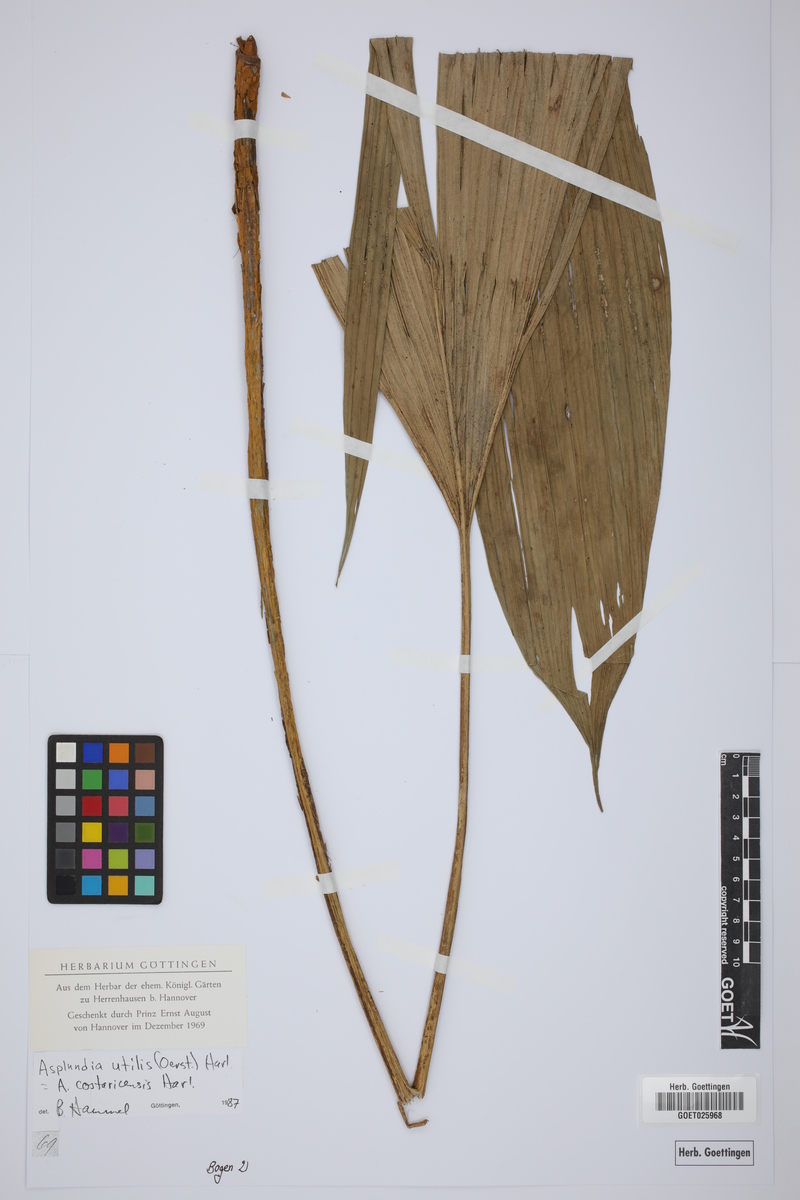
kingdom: Plantae
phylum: Tracheophyta
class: Liliopsida
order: Pandanales
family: Cyclanthaceae
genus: Asplundia
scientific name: Asplundia utilis
